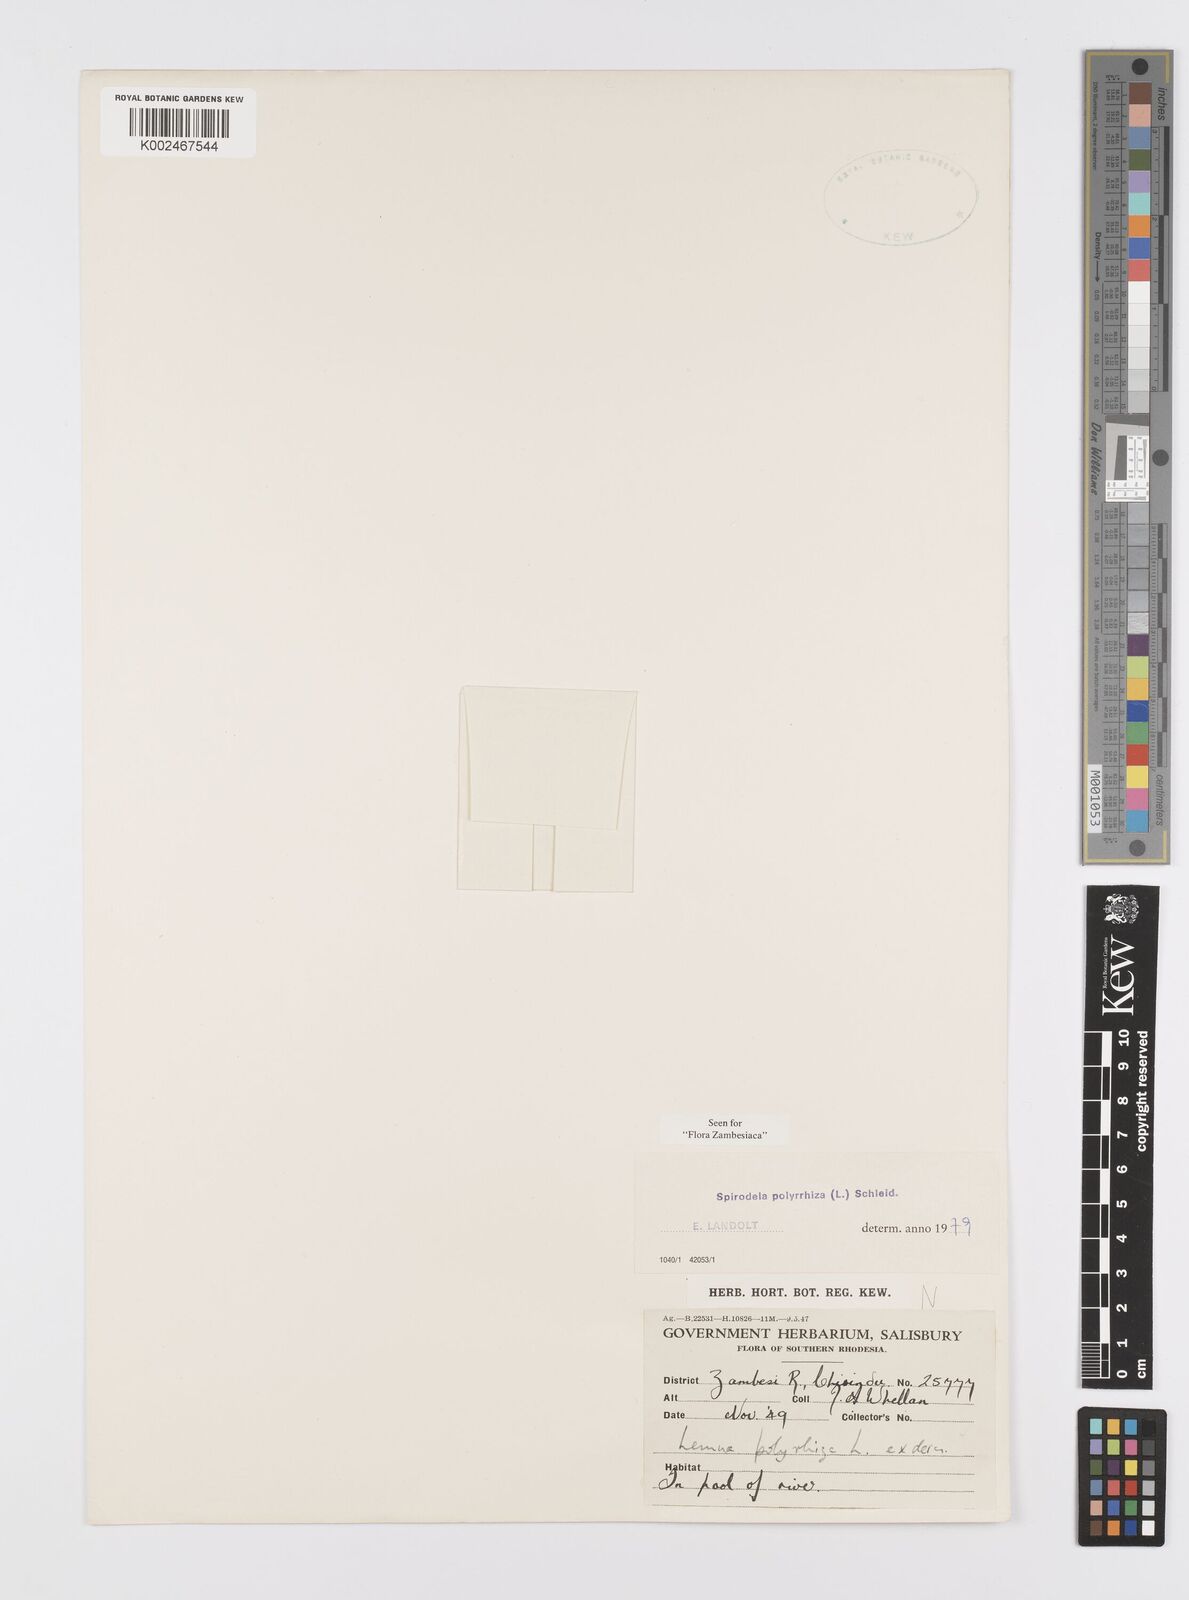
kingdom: Plantae
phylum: Tracheophyta
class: Liliopsida
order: Alismatales
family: Araceae
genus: Spirodela
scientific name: Spirodela polyrhiza
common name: Great duckweed
